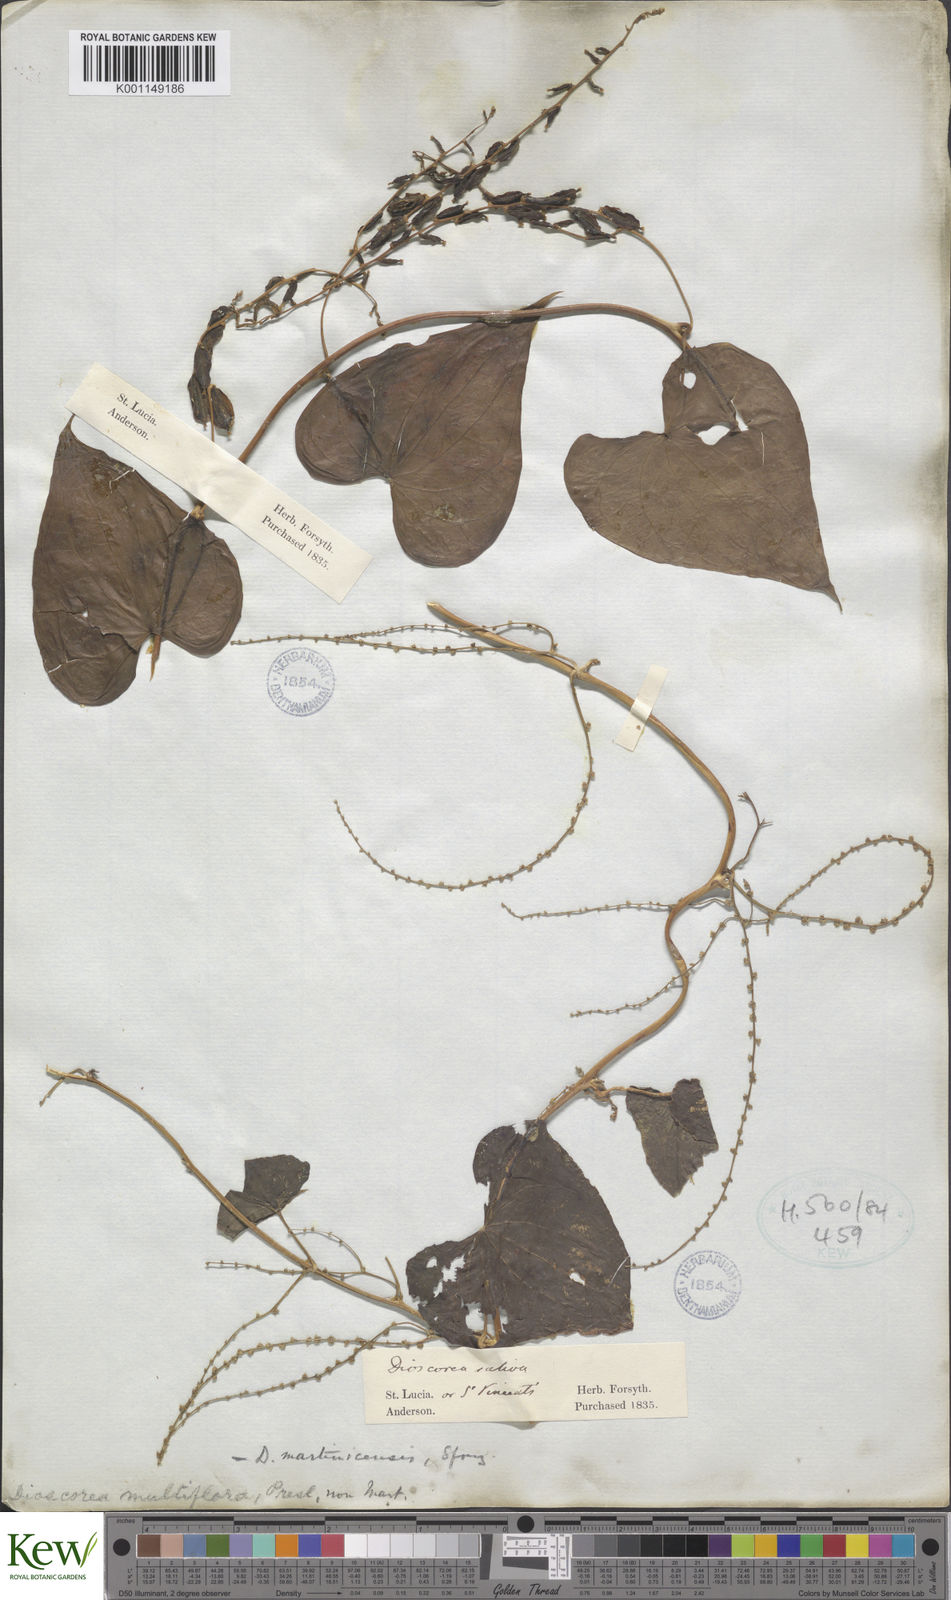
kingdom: Plantae
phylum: Tracheophyta
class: Liliopsida
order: Dioscoreales
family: Dioscoreaceae
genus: Dioscorea
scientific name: Dioscorea polygonoides
